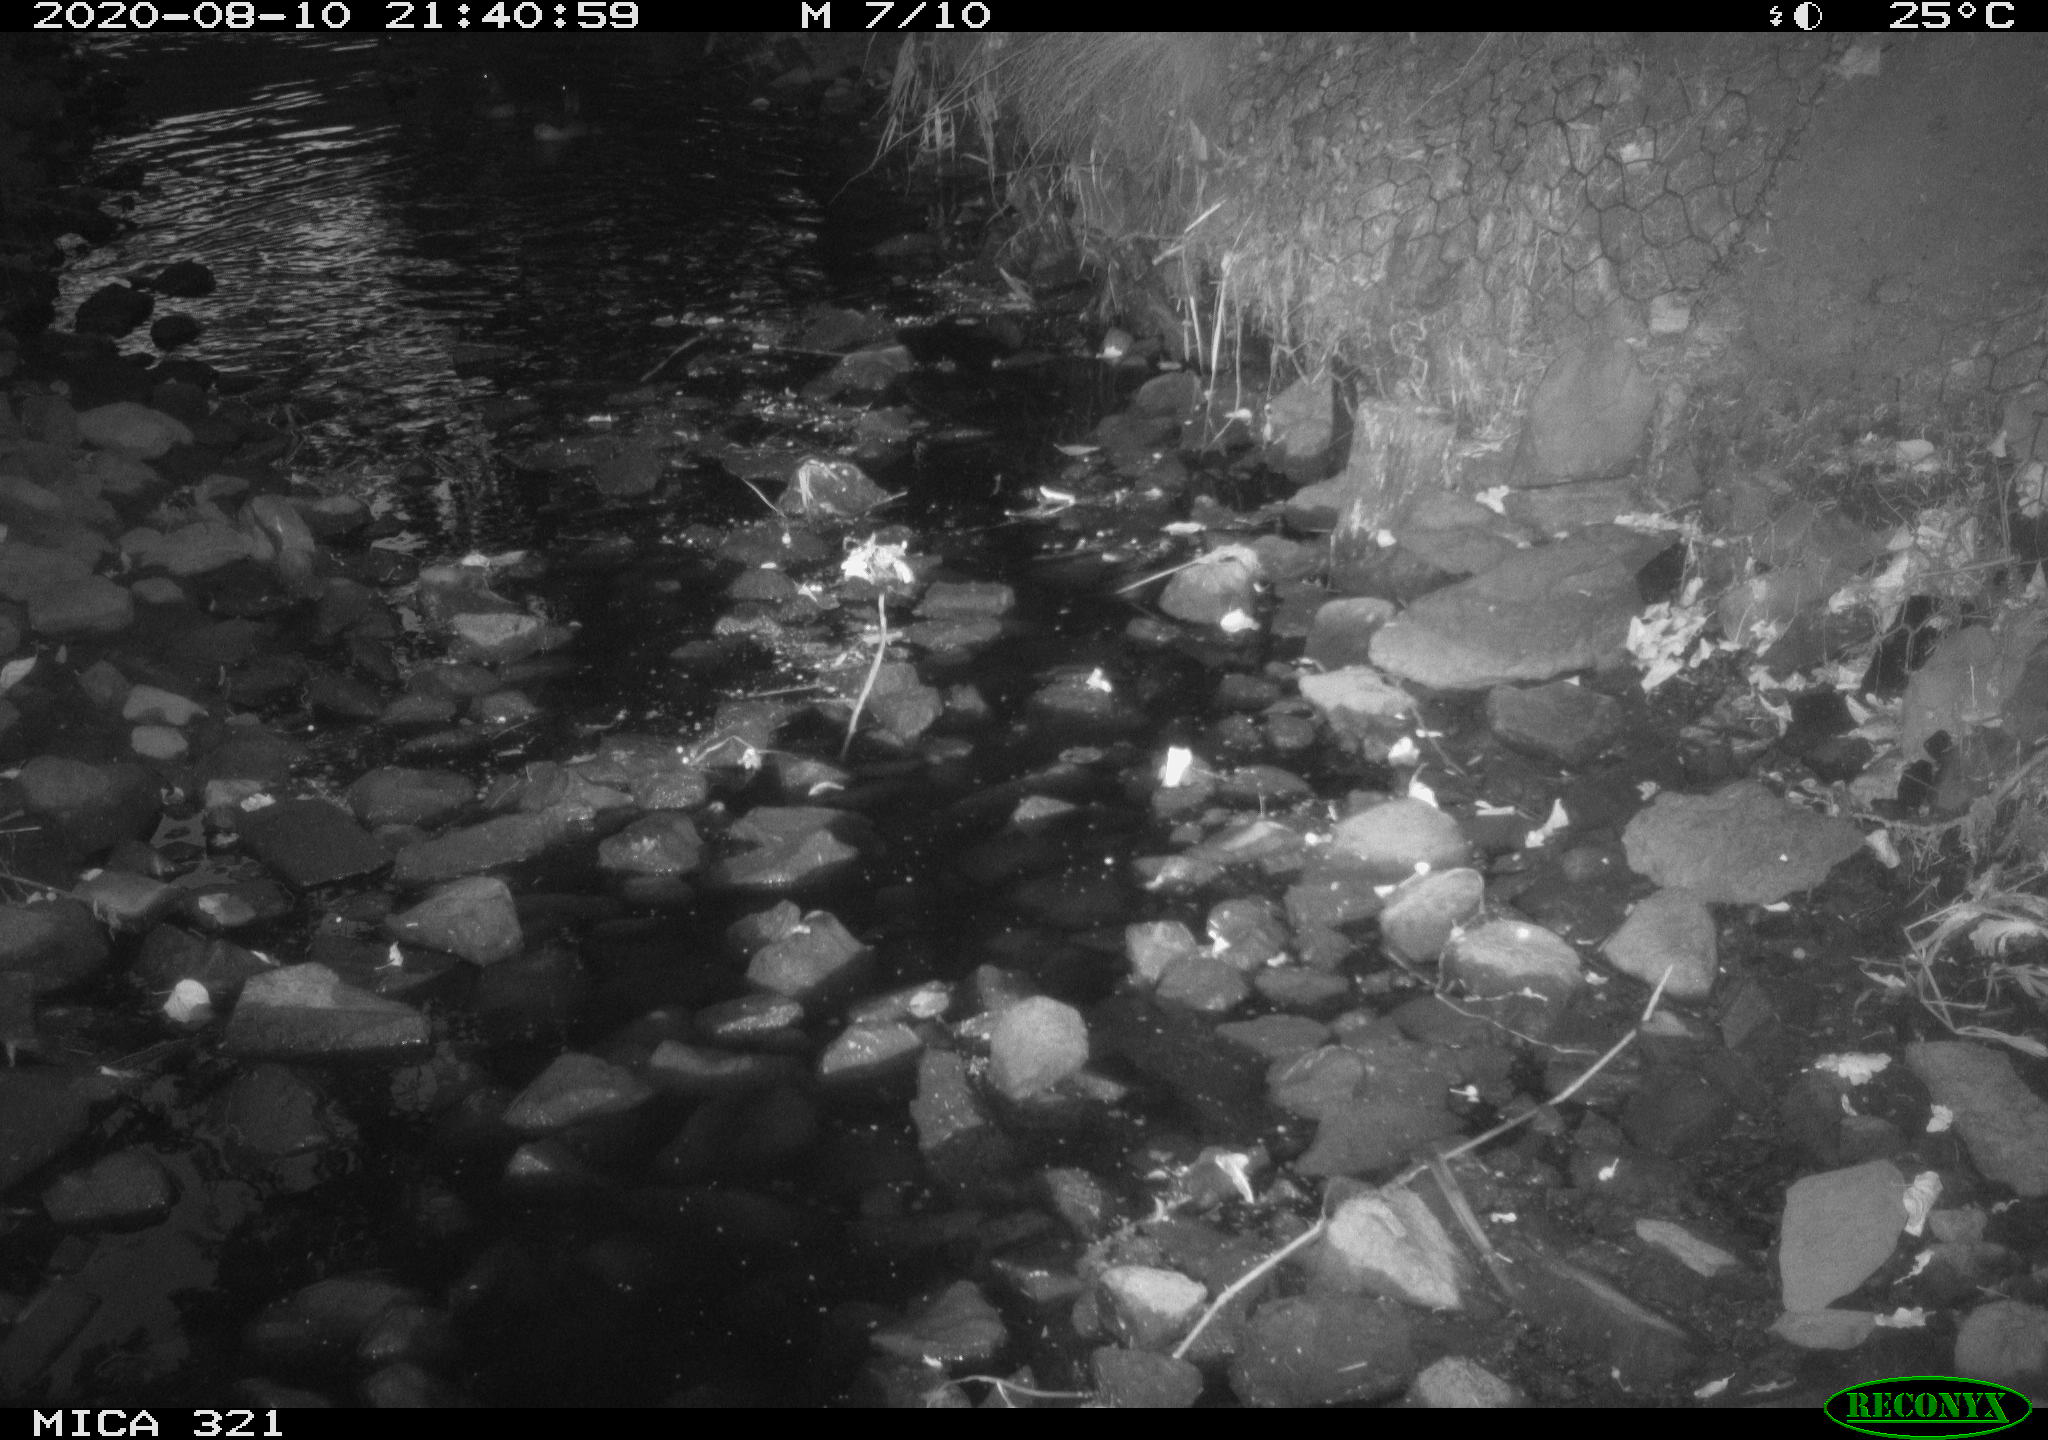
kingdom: Animalia
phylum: Chordata
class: Aves
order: Anseriformes
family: Anatidae
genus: Anas
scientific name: Anas platyrhynchos
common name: Mallard
